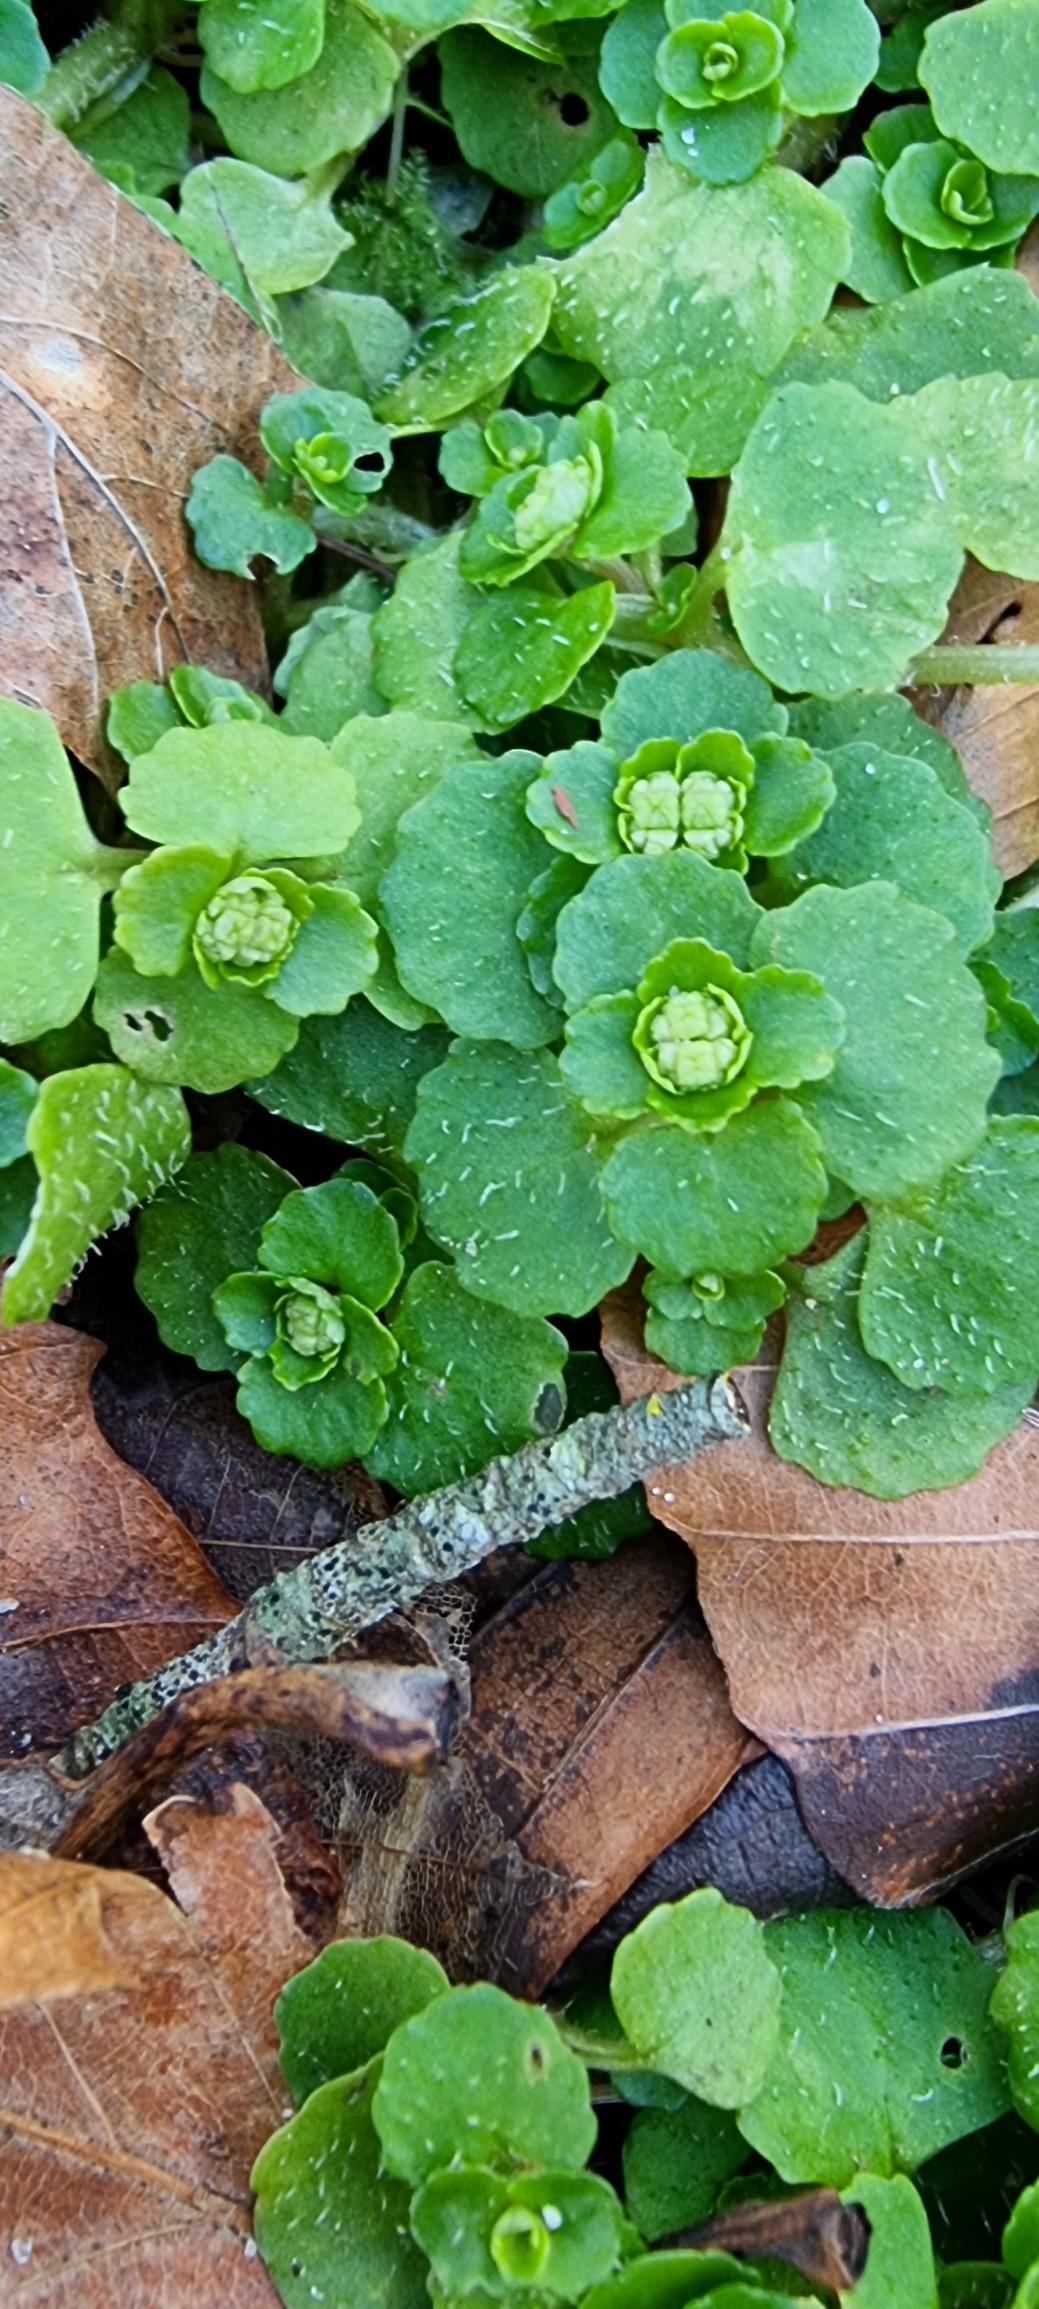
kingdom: Plantae
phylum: Tracheophyta
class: Magnoliopsida
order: Saxifragales
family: Saxifragaceae
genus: Chrysosplenium
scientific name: Chrysosplenium oppositifolium
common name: Småbladet milturt
